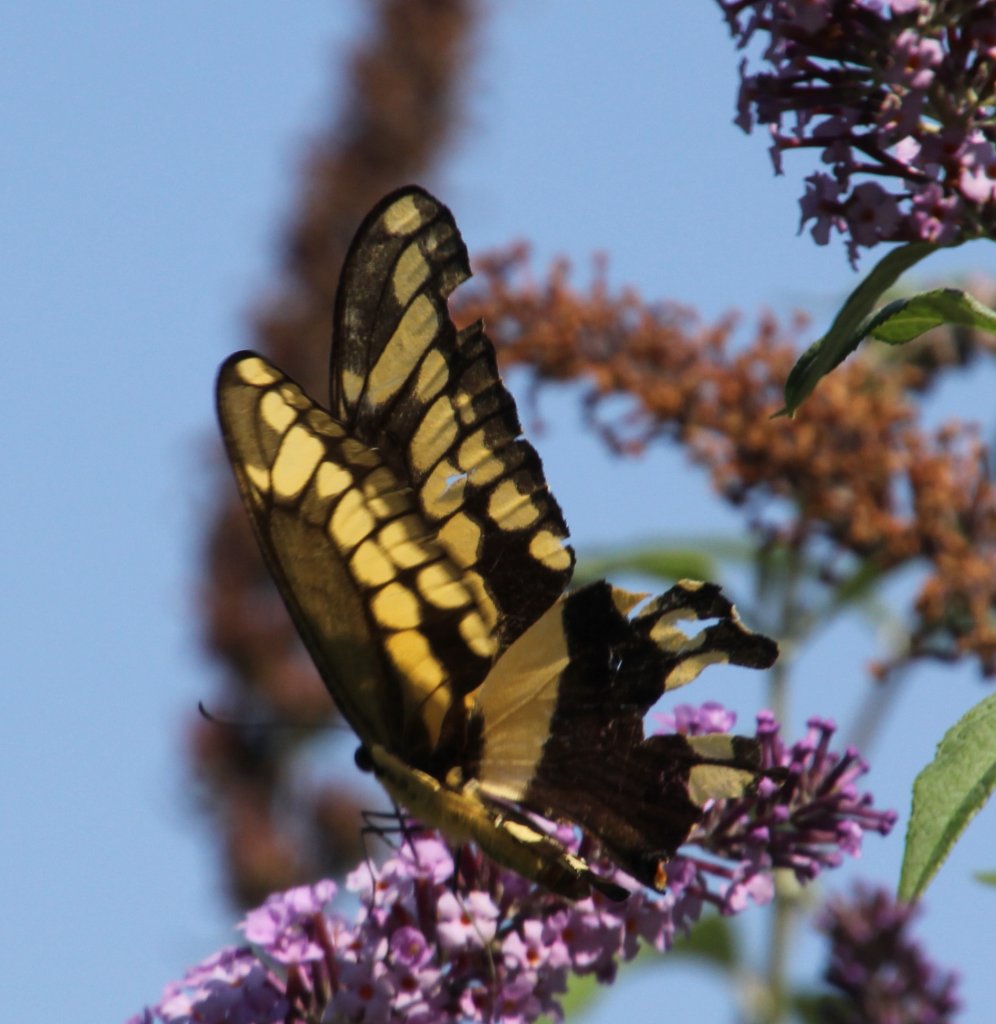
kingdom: Animalia
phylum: Arthropoda
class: Insecta
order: Lepidoptera
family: Papilionidae
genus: Papilio
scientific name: Papilio cresphontes
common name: Eastern Giant Swallowtail
